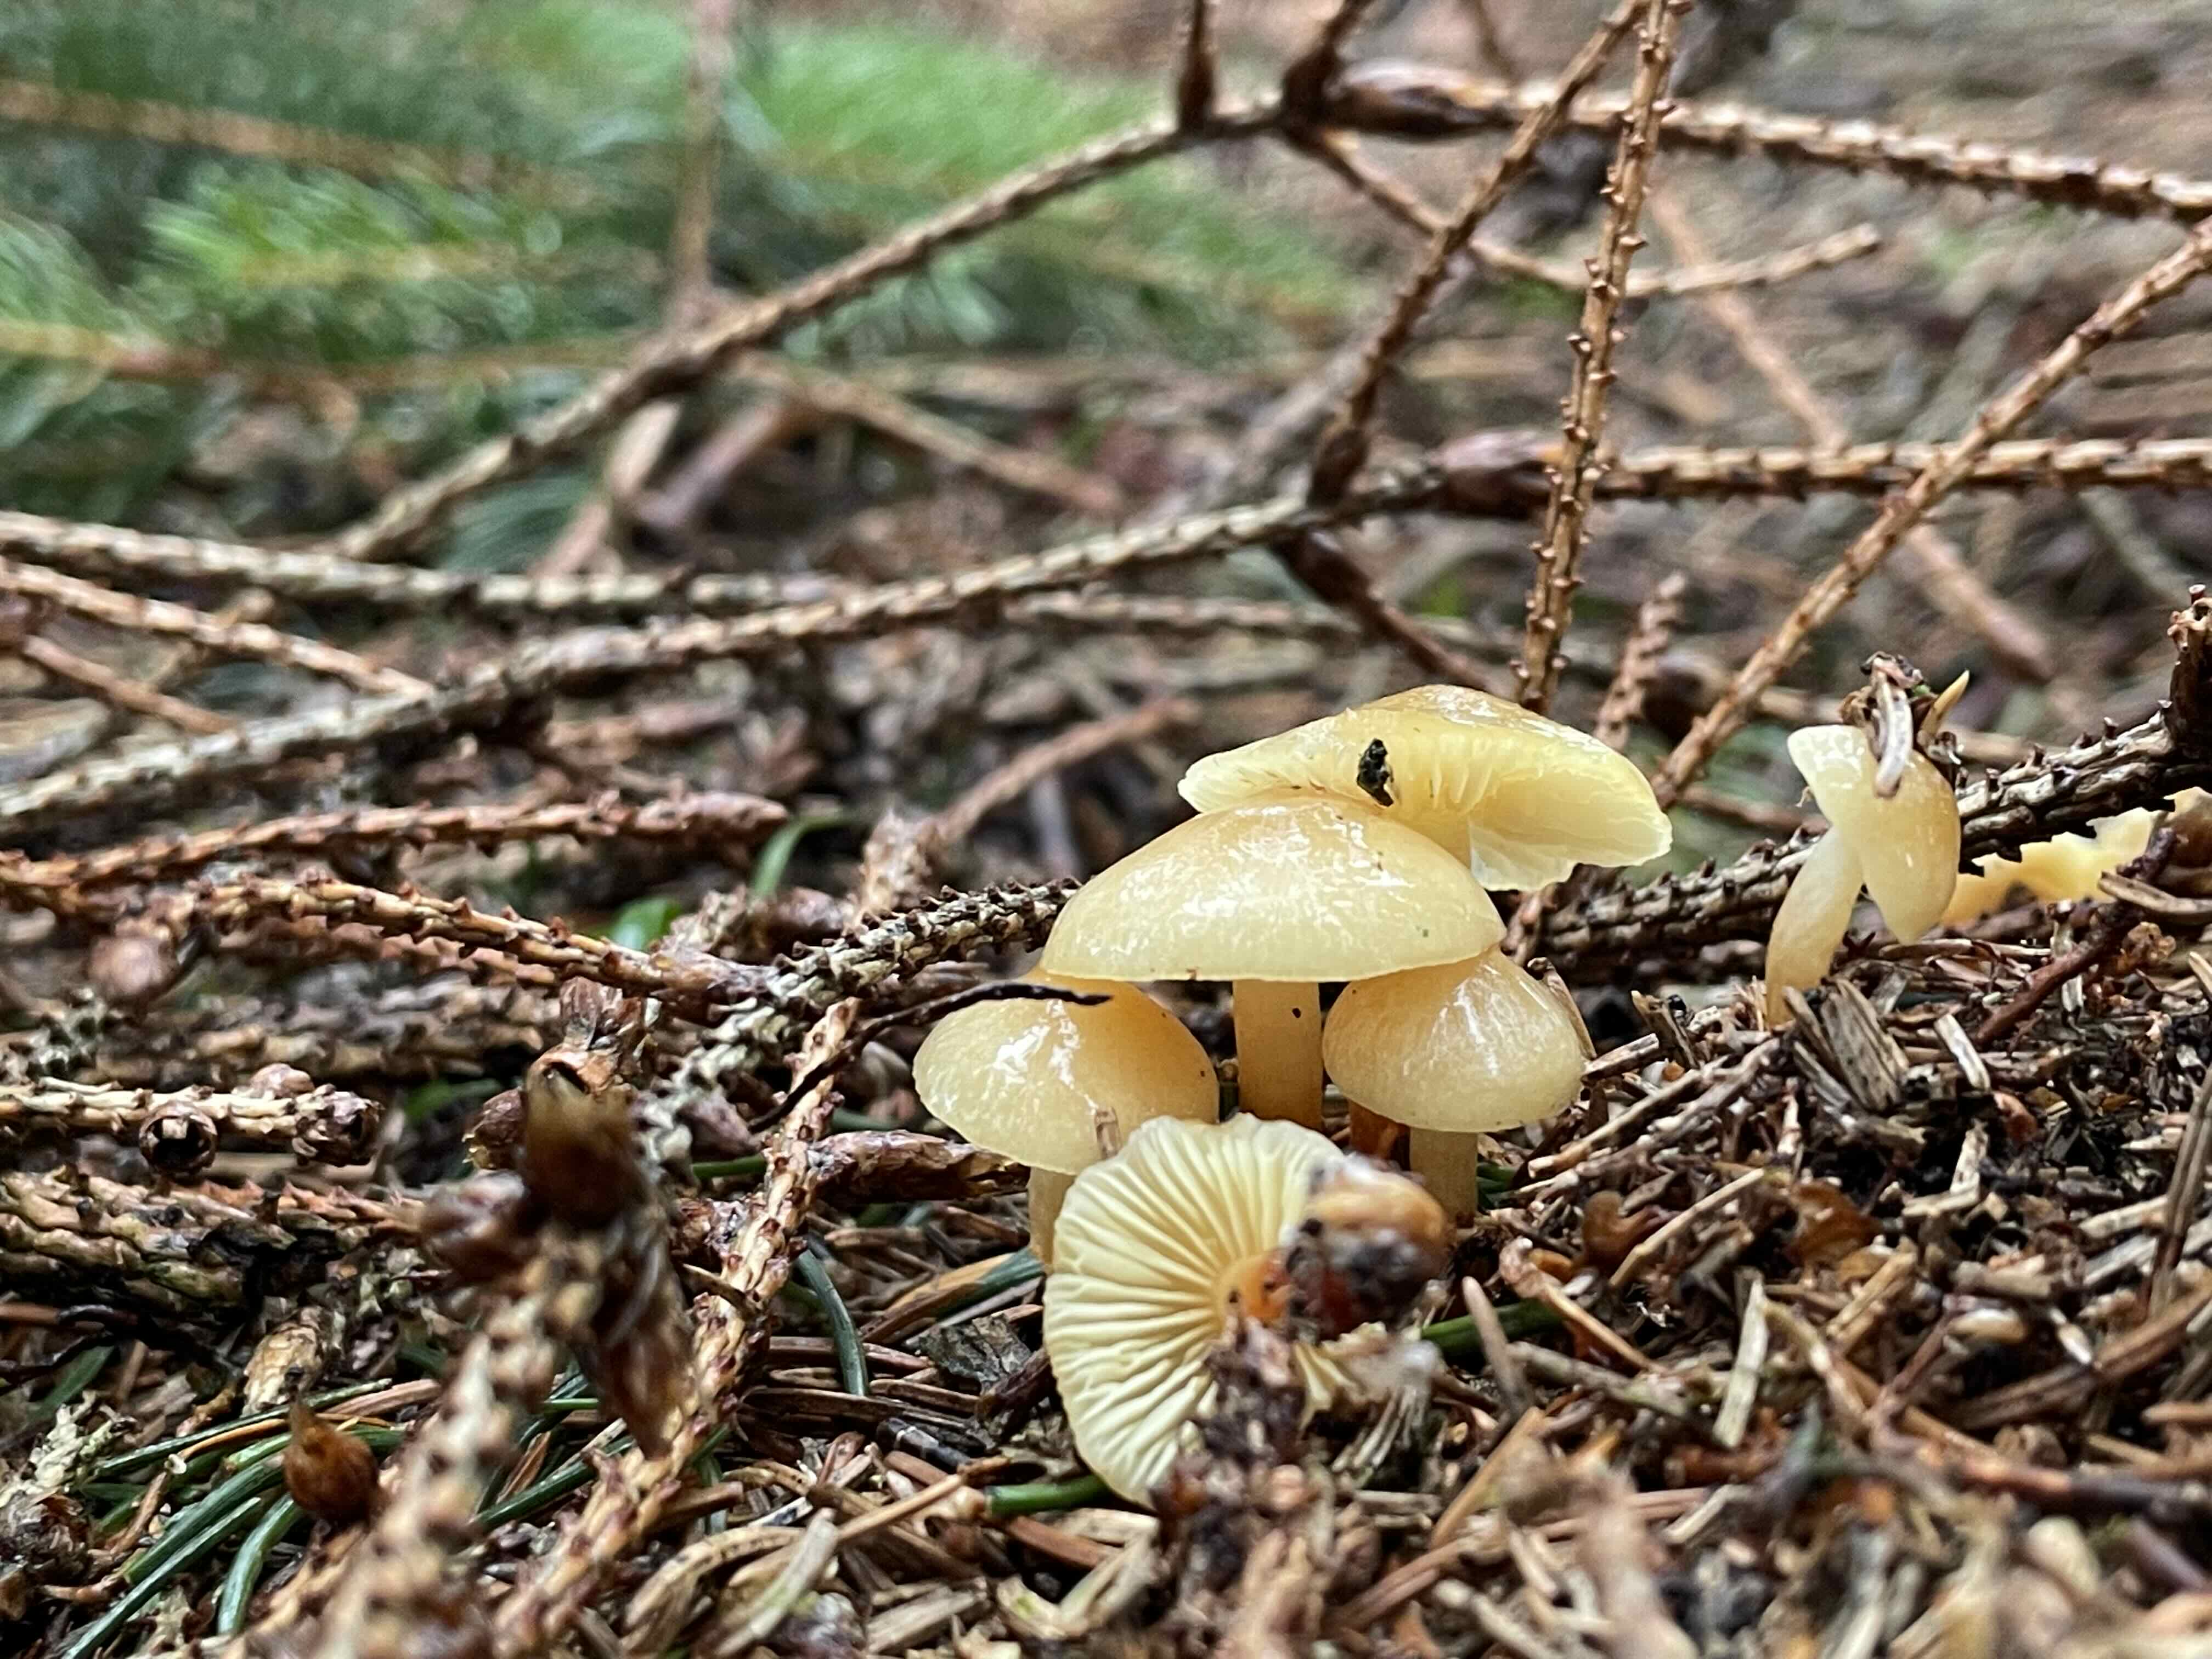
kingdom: Fungi
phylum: Basidiomycota
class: Agaricomycetes
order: Agaricales
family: Strophariaceae
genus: Hypholoma
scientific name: Hypholoma capnoides
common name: gran-svovlhat
